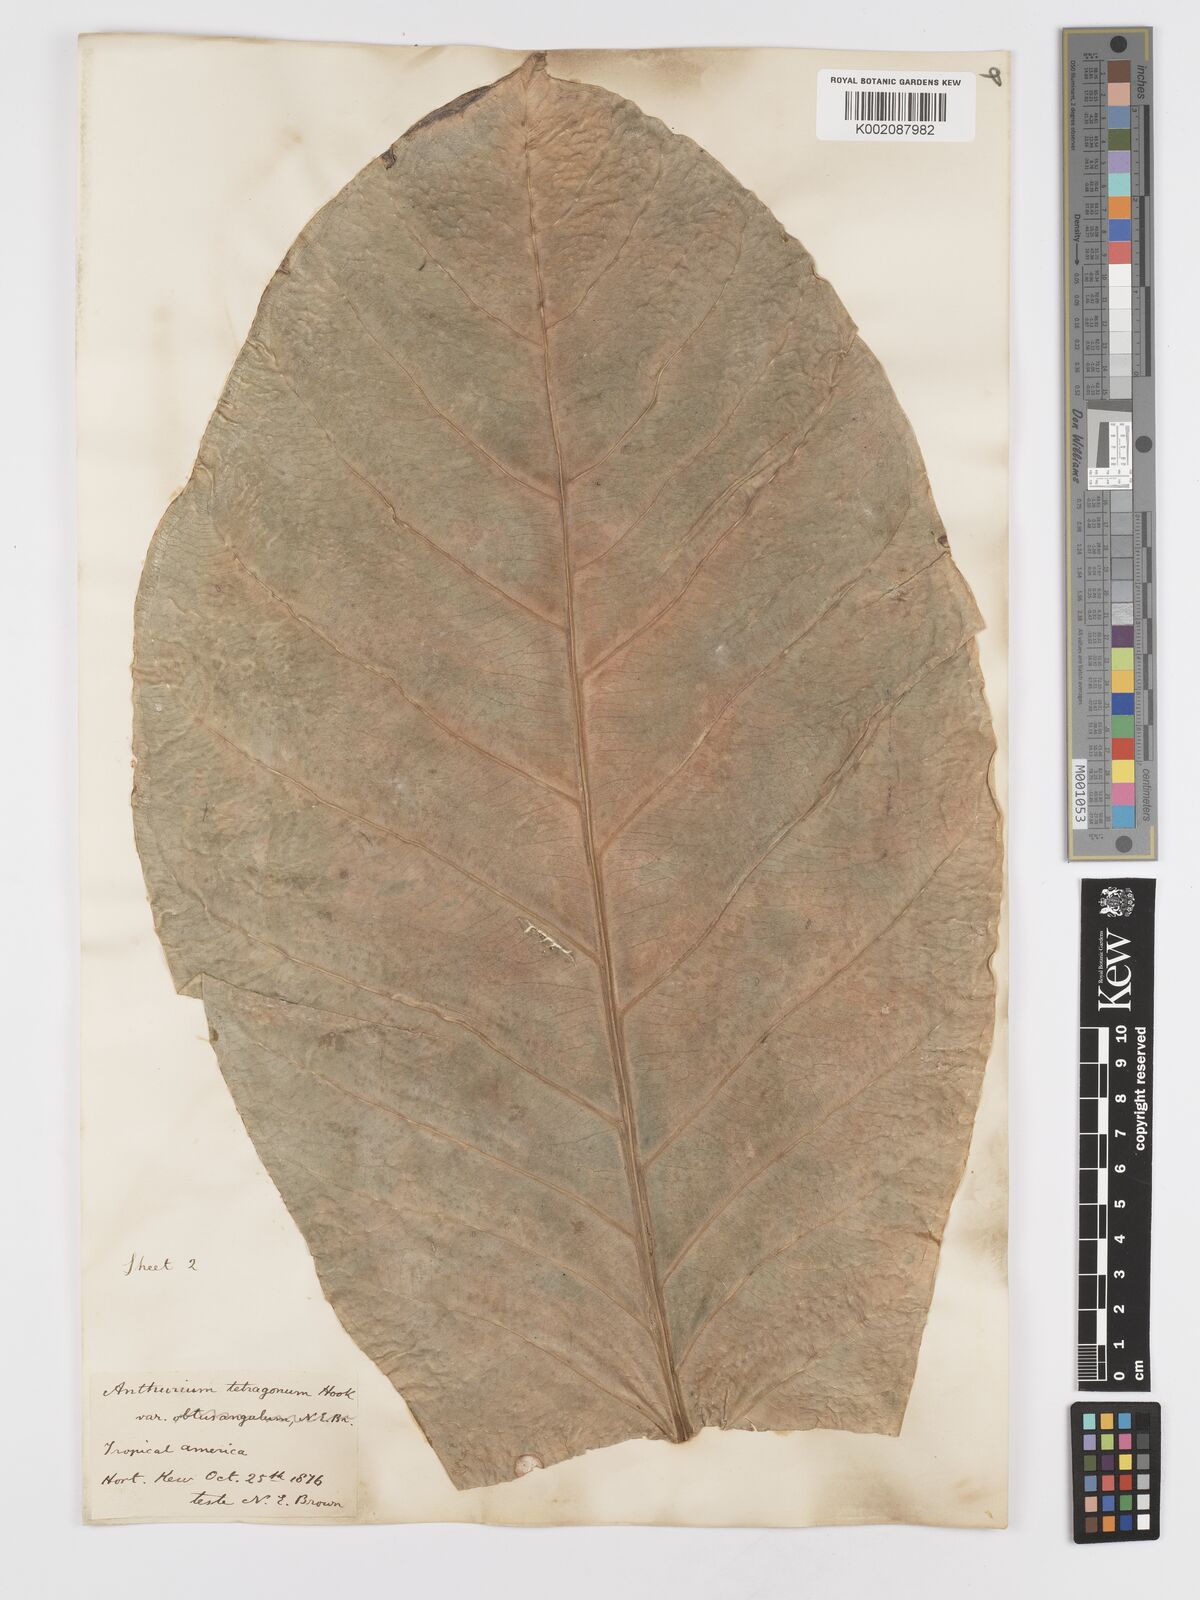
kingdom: Plantae
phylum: Tracheophyta
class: Liliopsida
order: Alismatales
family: Araceae
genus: Anthurium
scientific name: Anthurium schlechtendalii
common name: Laceleaf
